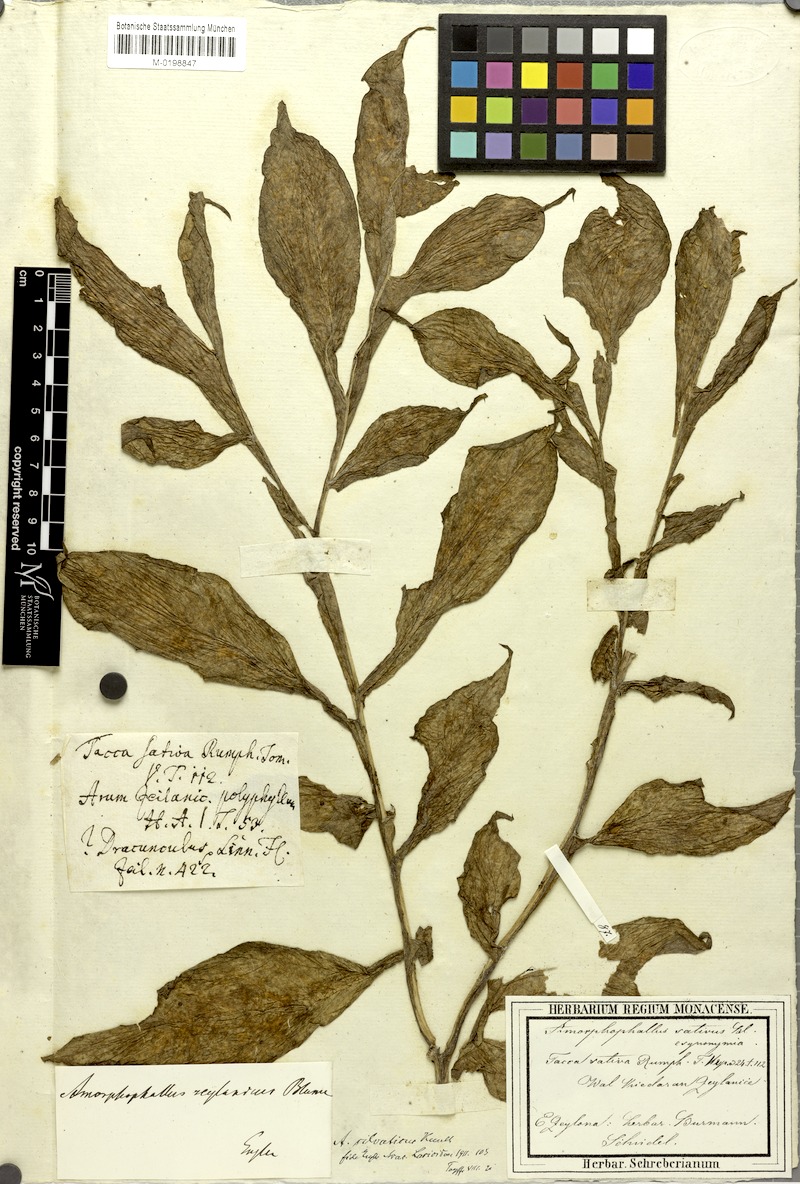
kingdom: Plantae
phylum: Tracheophyta
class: Liliopsida
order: Alismatales
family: Araceae
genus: Amorphophallus
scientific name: Amorphophallus sylvaticus
